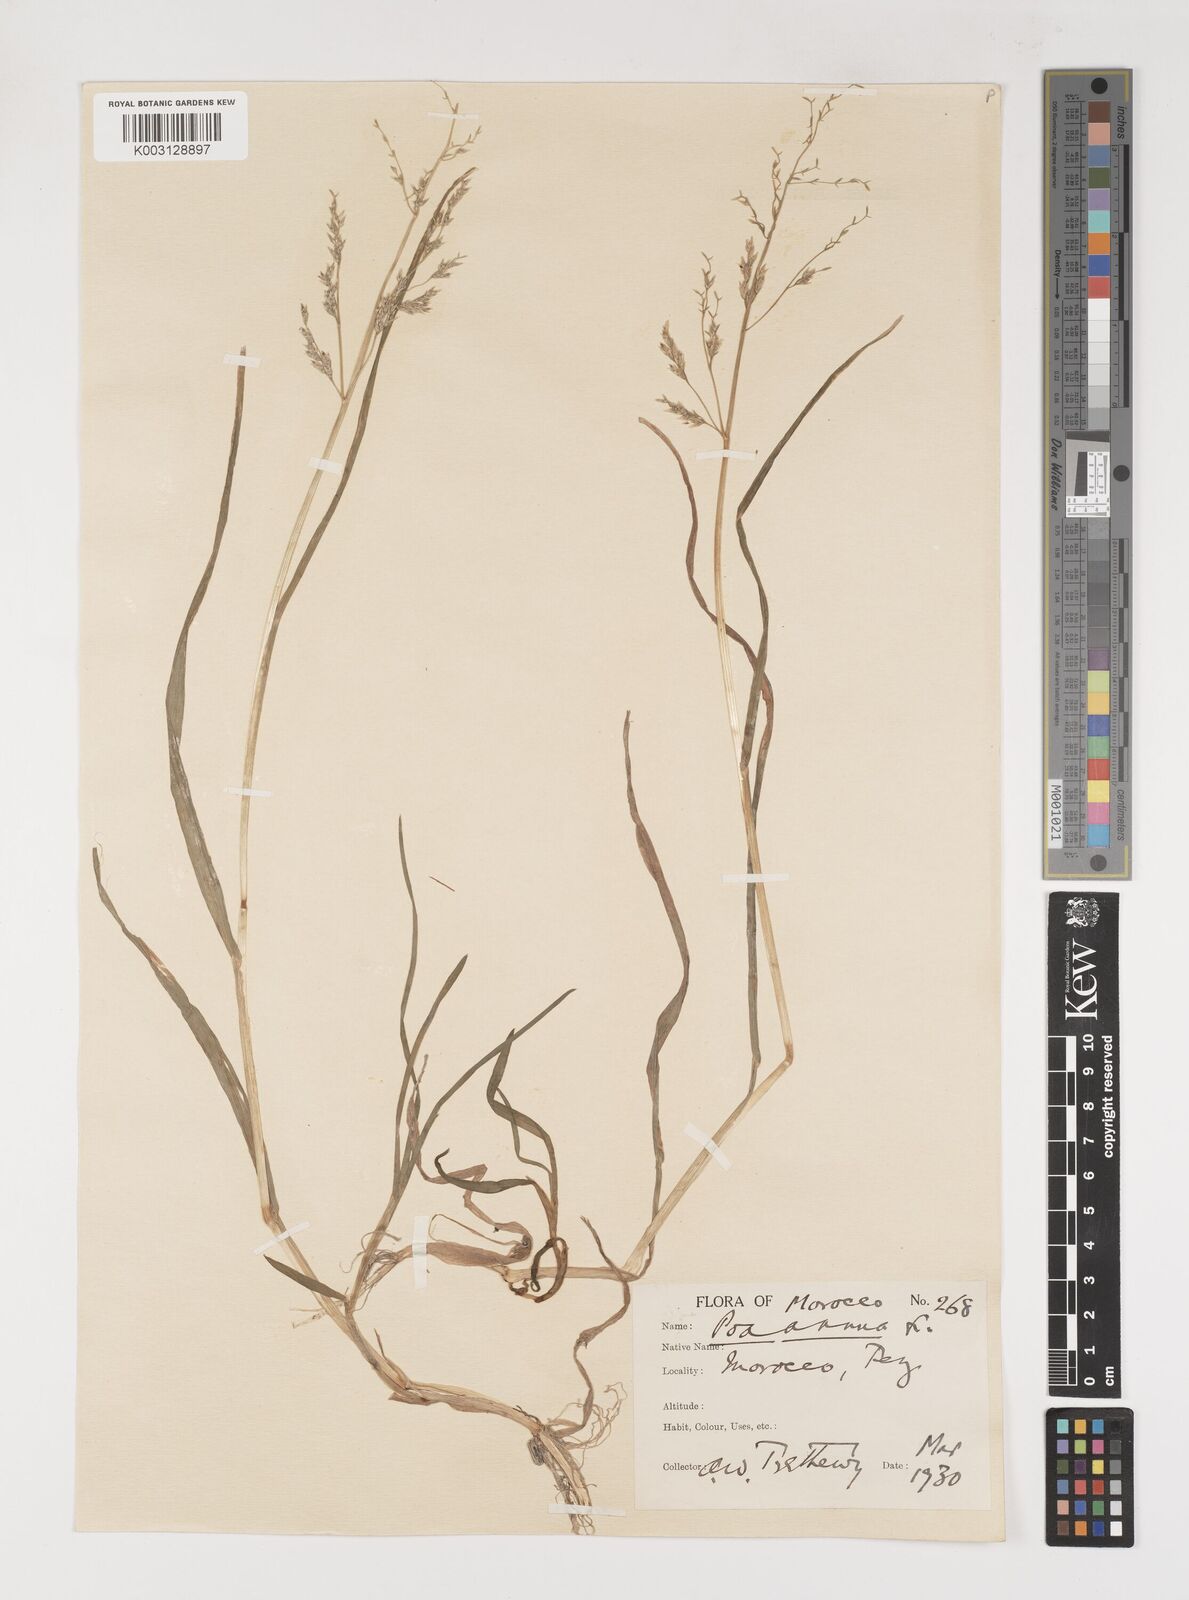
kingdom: Plantae
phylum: Tracheophyta
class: Liliopsida
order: Poales
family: Poaceae
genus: Poa
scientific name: Poa annua
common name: Annual bluegrass
